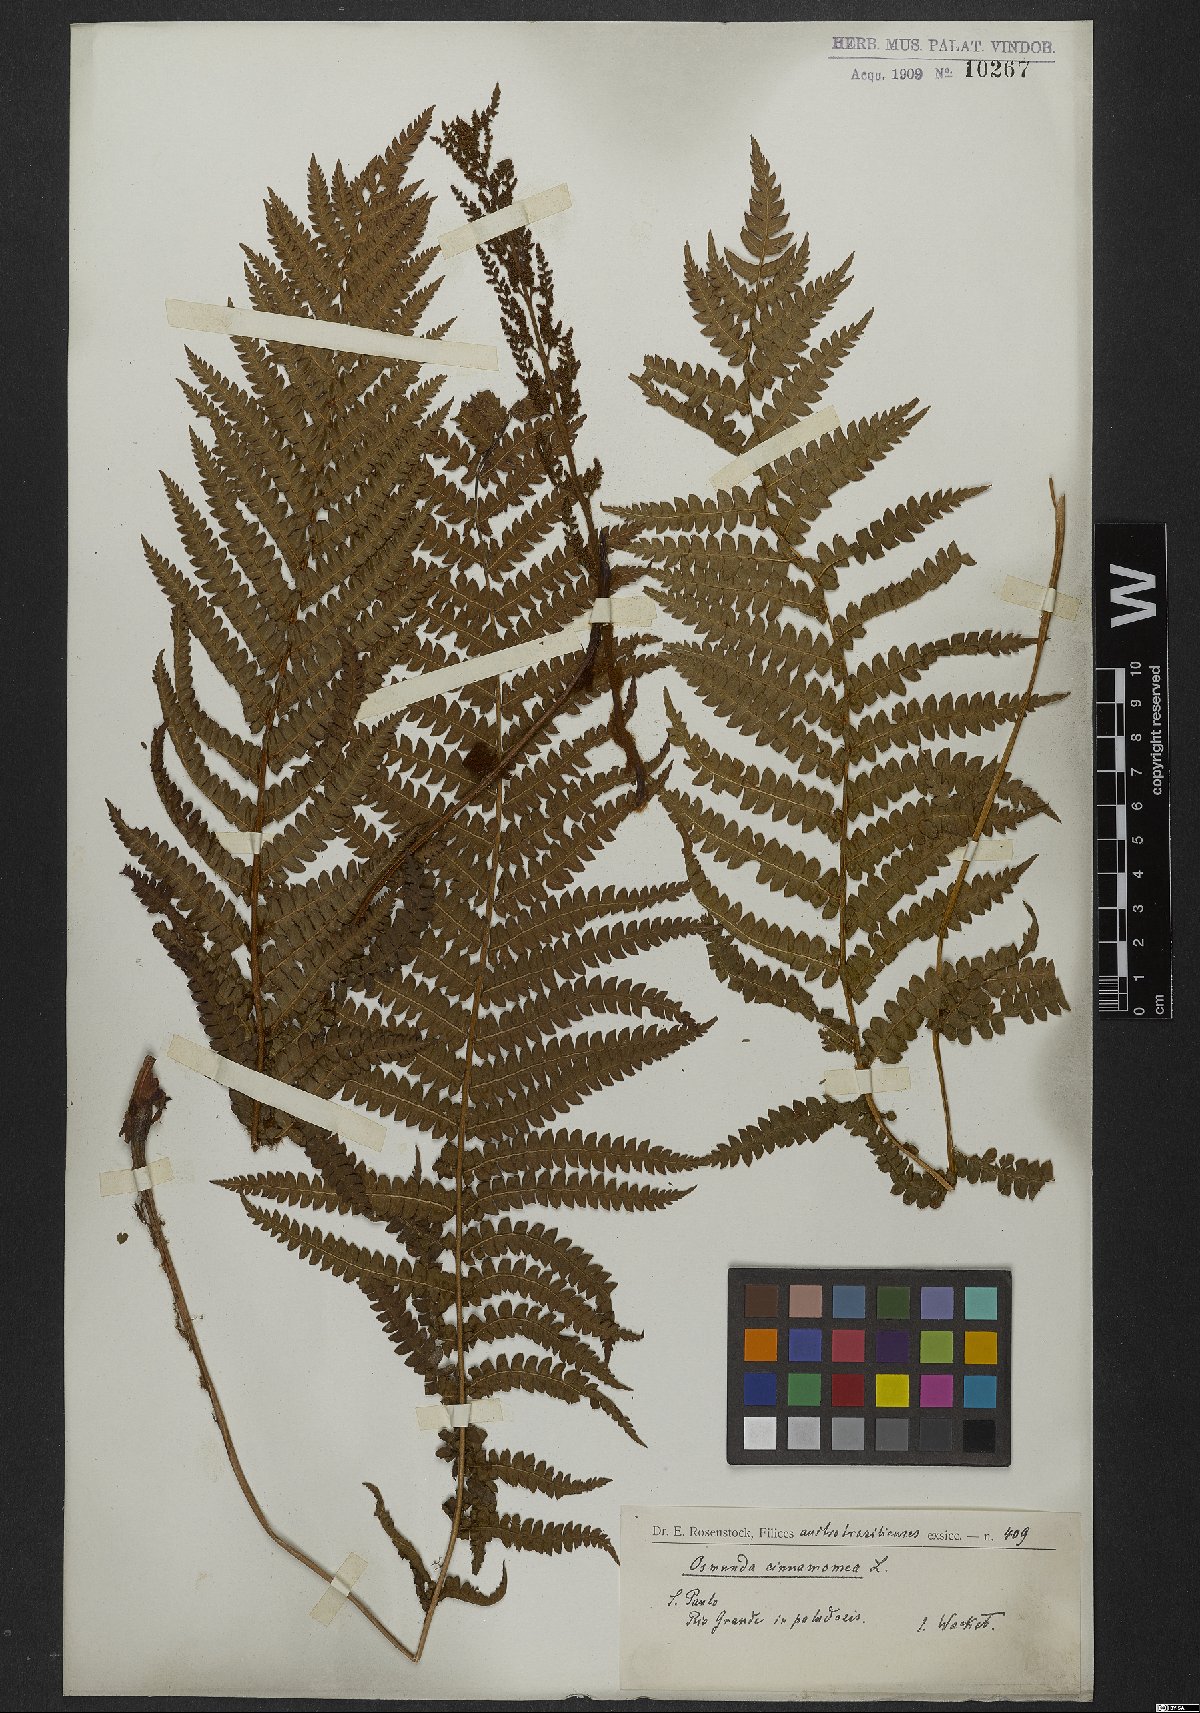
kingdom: Plantae
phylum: Tracheophyta
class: Polypodiopsida
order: Osmundales
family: Osmundaceae
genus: Osmundastrum
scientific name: Osmundastrum cinnamomeum
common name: Cinnamon fern
